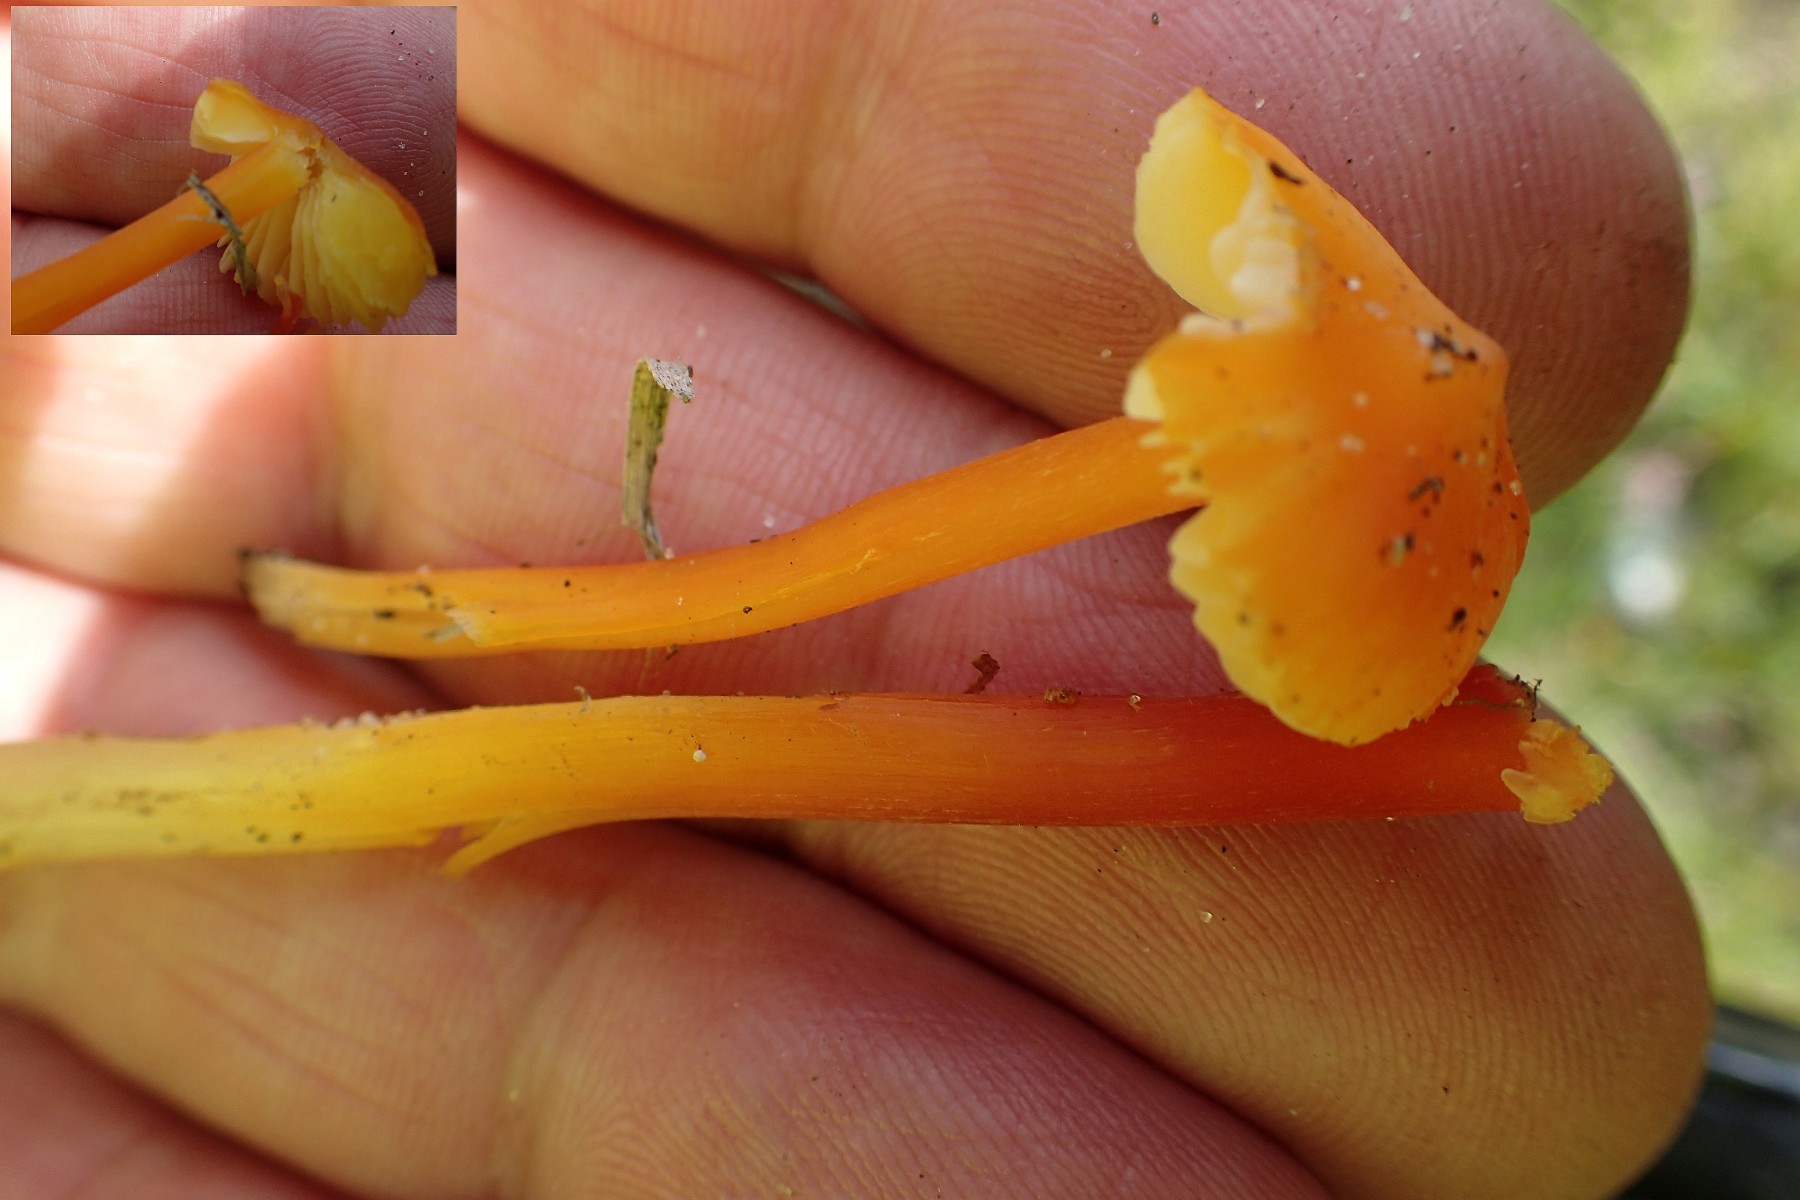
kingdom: Fungi
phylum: Basidiomycota
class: Agaricomycetes
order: Agaricales
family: Hygrophoraceae
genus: Hygrocybe
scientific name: Hygrocybe
